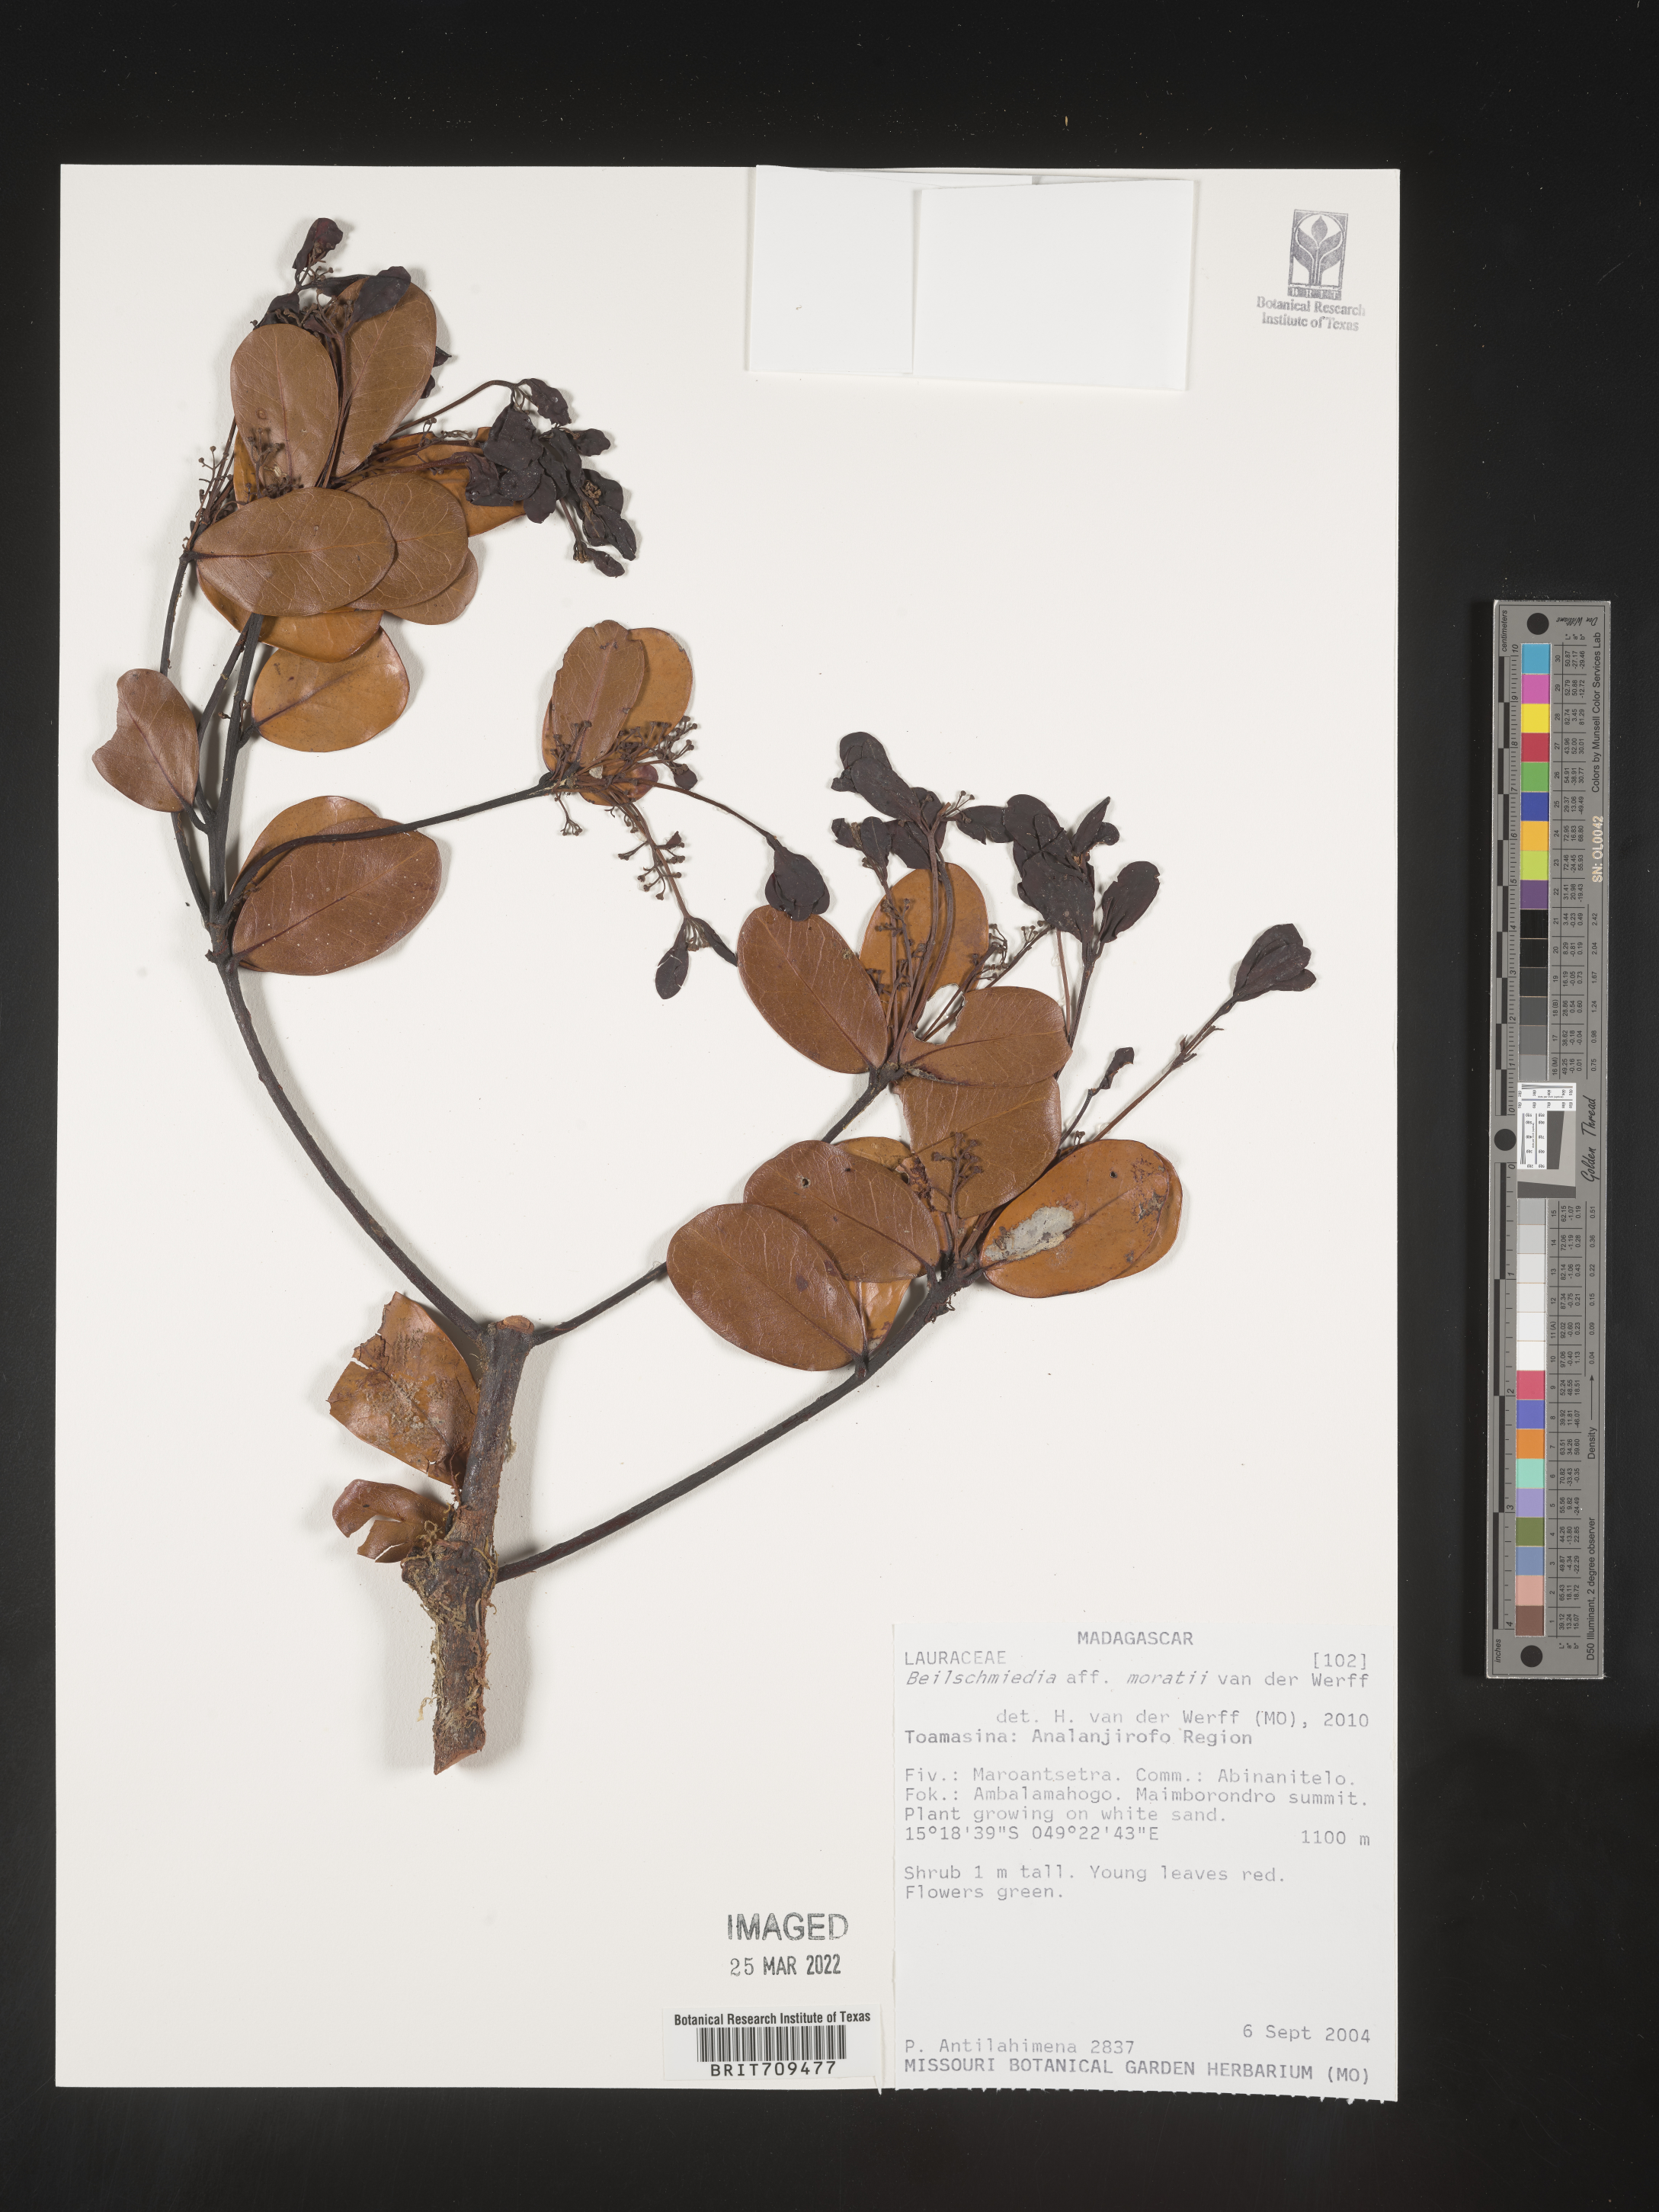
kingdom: Plantae
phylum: Tracheophyta
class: Magnoliopsida
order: Laurales
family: Lauraceae
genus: Beilschmiedia
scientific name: Beilschmiedia
